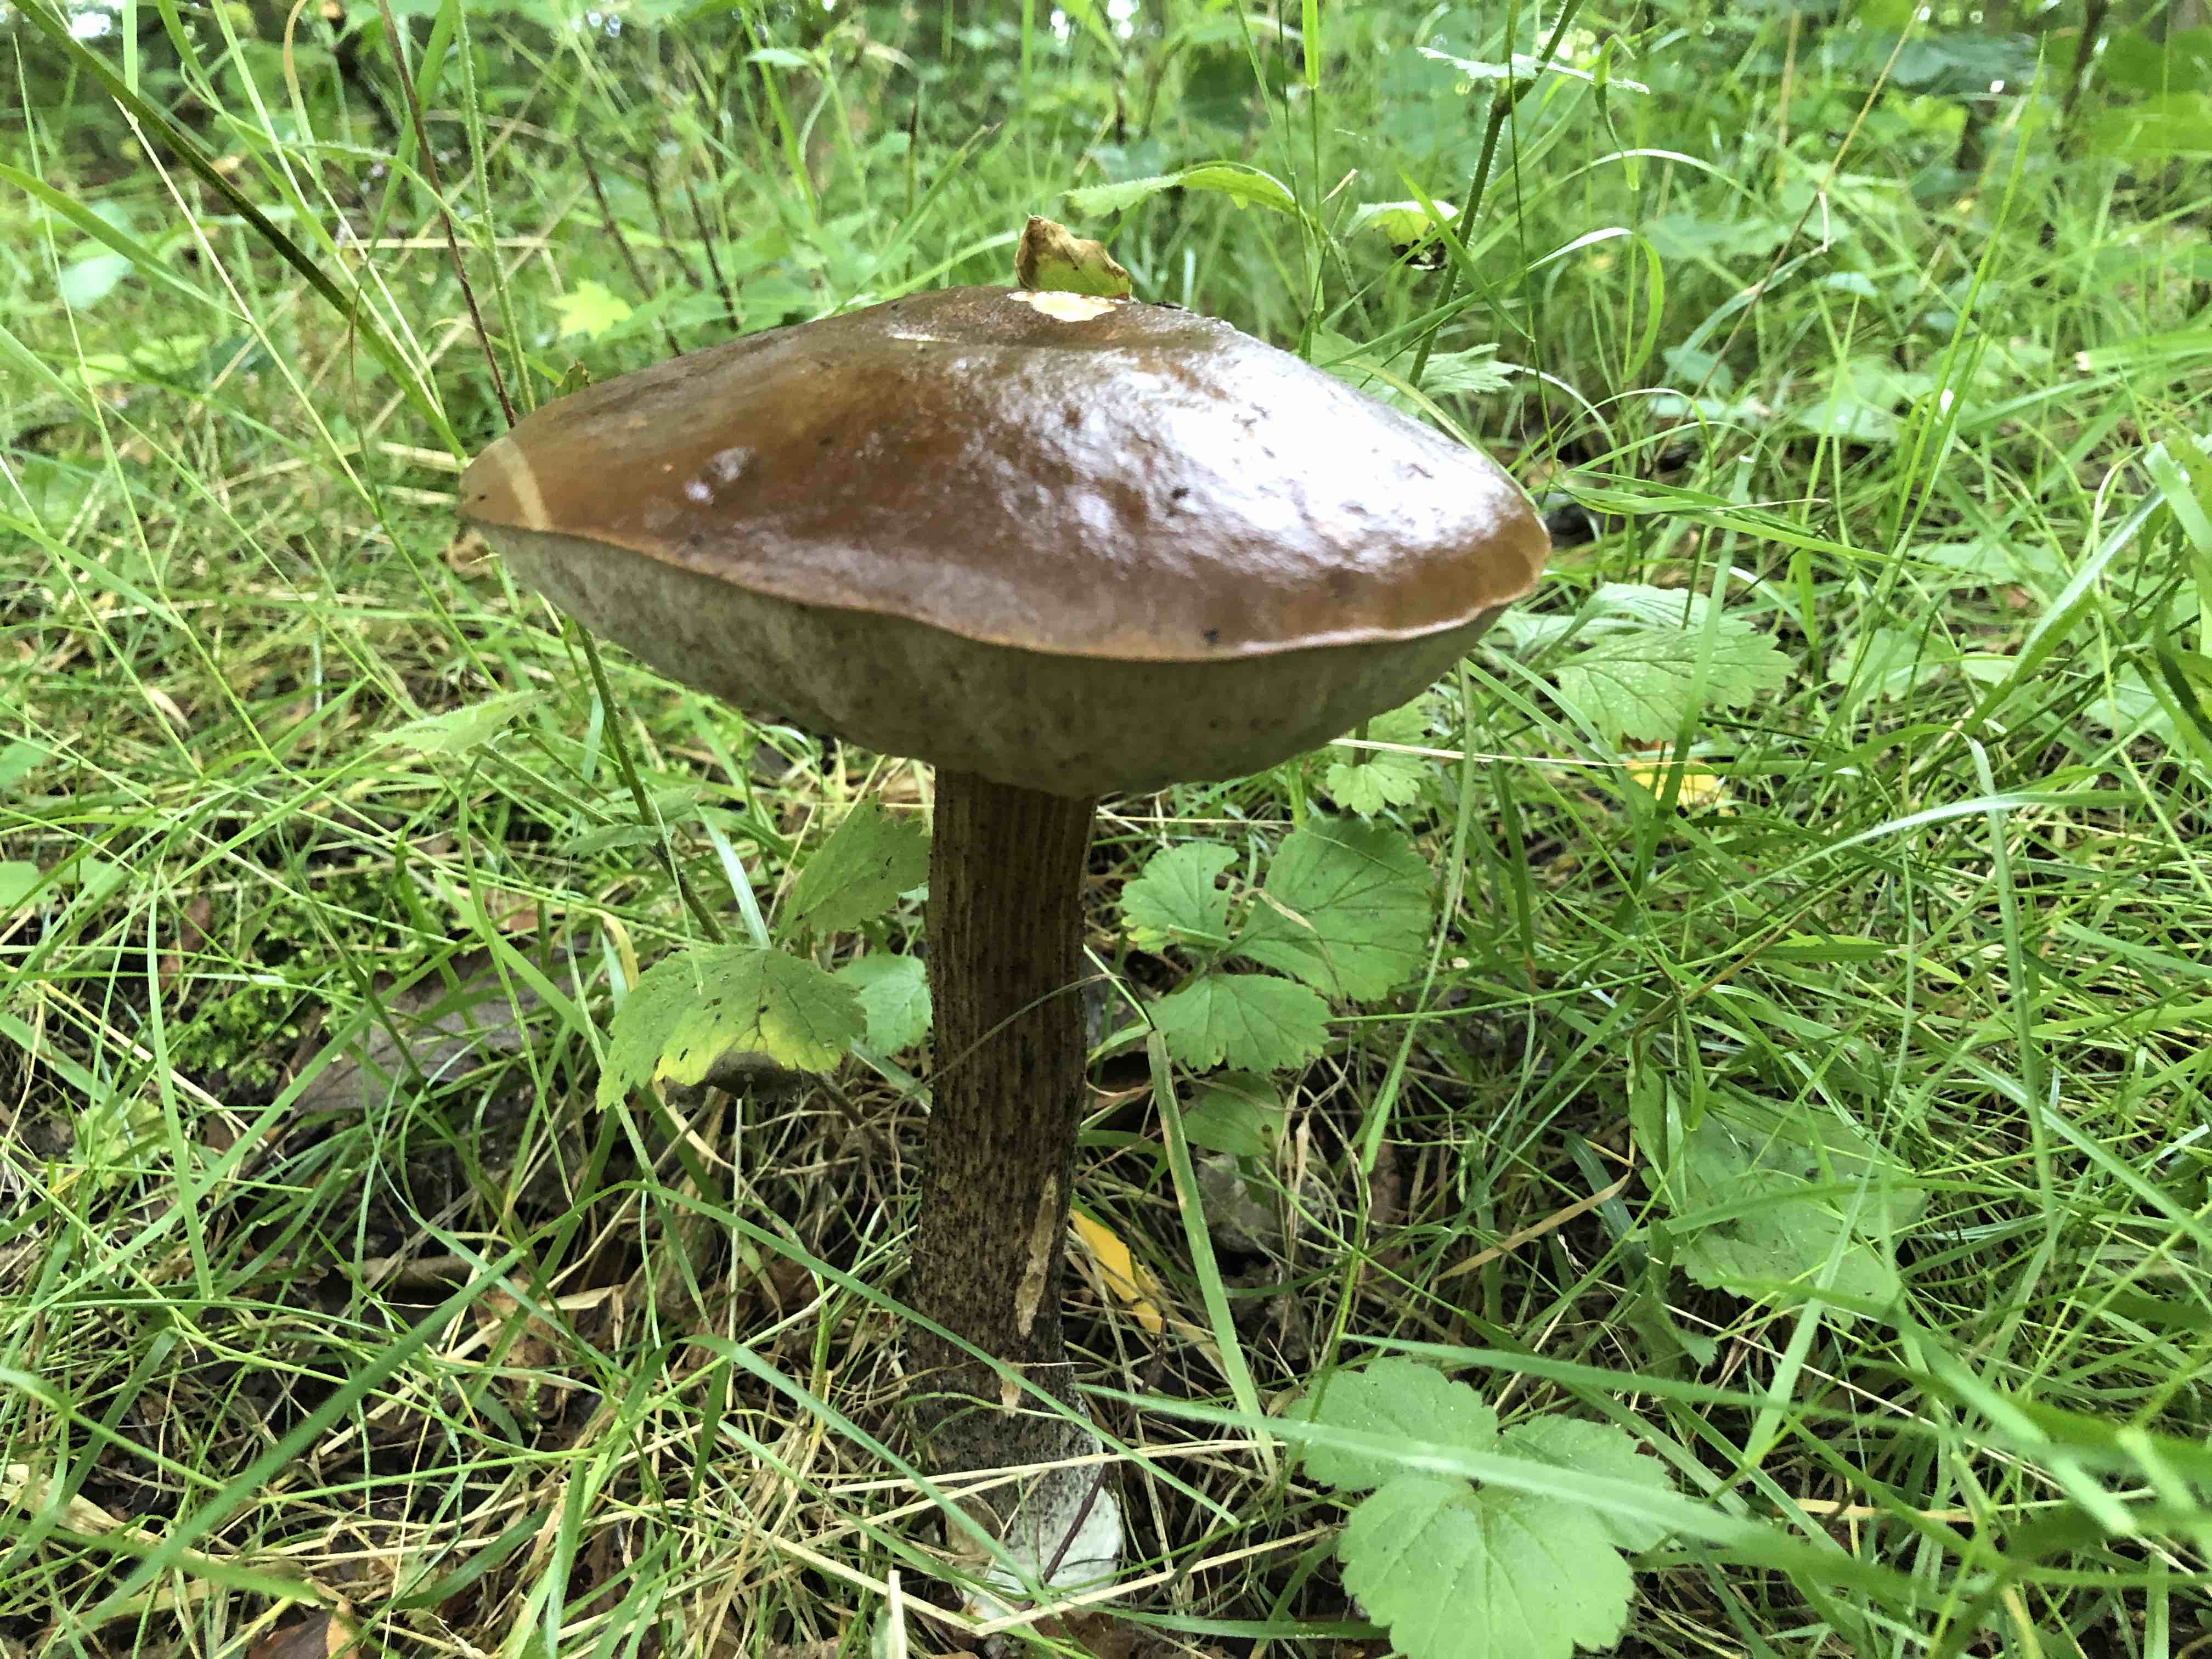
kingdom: Fungi
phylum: Basidiomycota
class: Agaricomycetes
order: Boletales
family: Boletaceae
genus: Leccinum
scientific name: Leccinum scabrum
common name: brun skælrørhat
